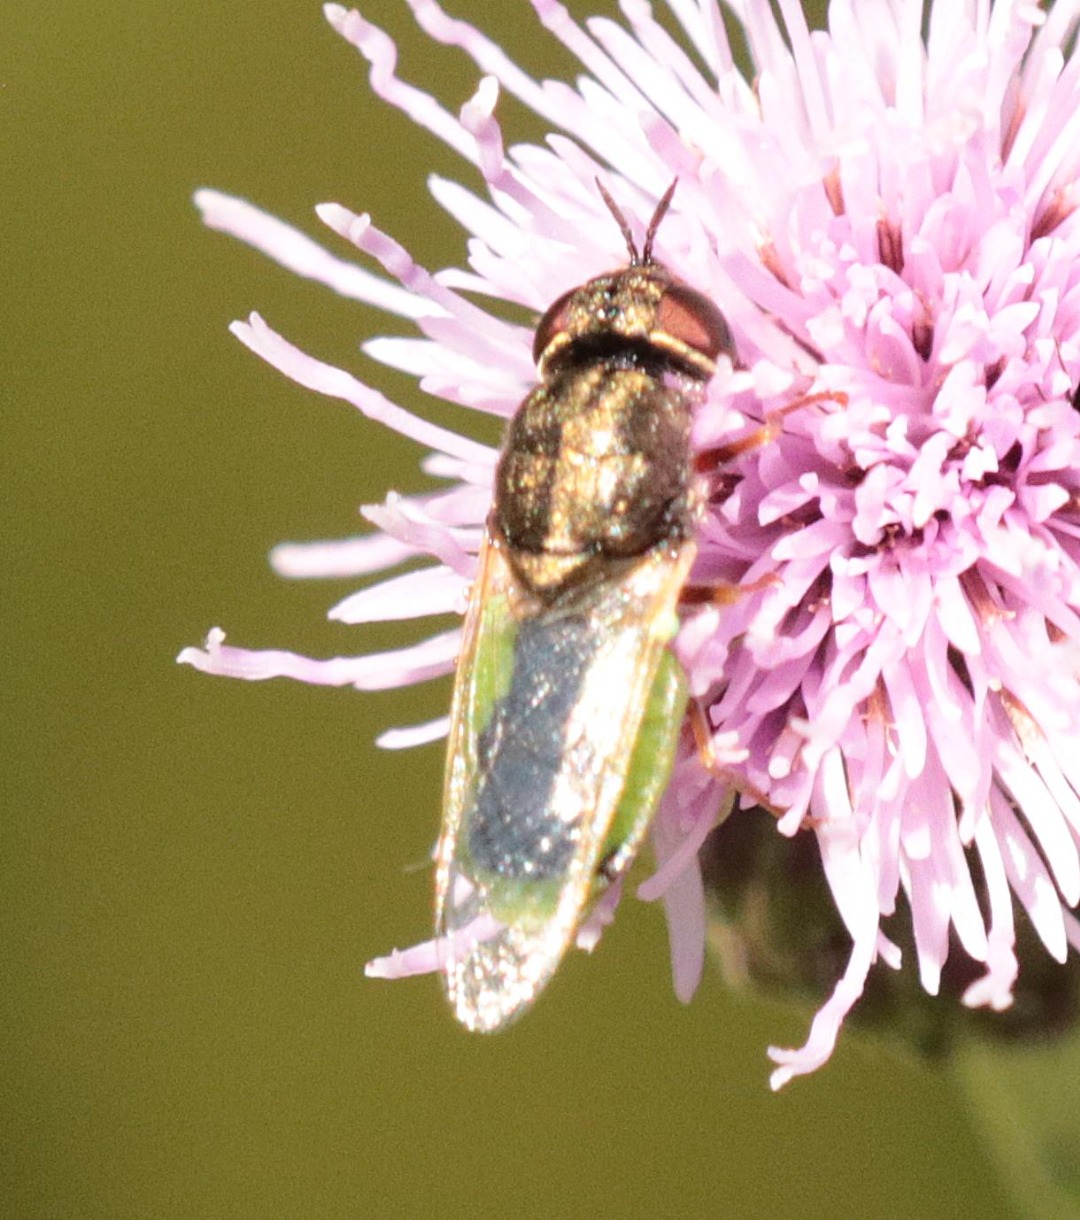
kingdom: Animalia
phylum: Arthropoda
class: Insecta
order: Diptera
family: Stratiomyidae
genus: Oplodontha
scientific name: Oplodontha viridula
